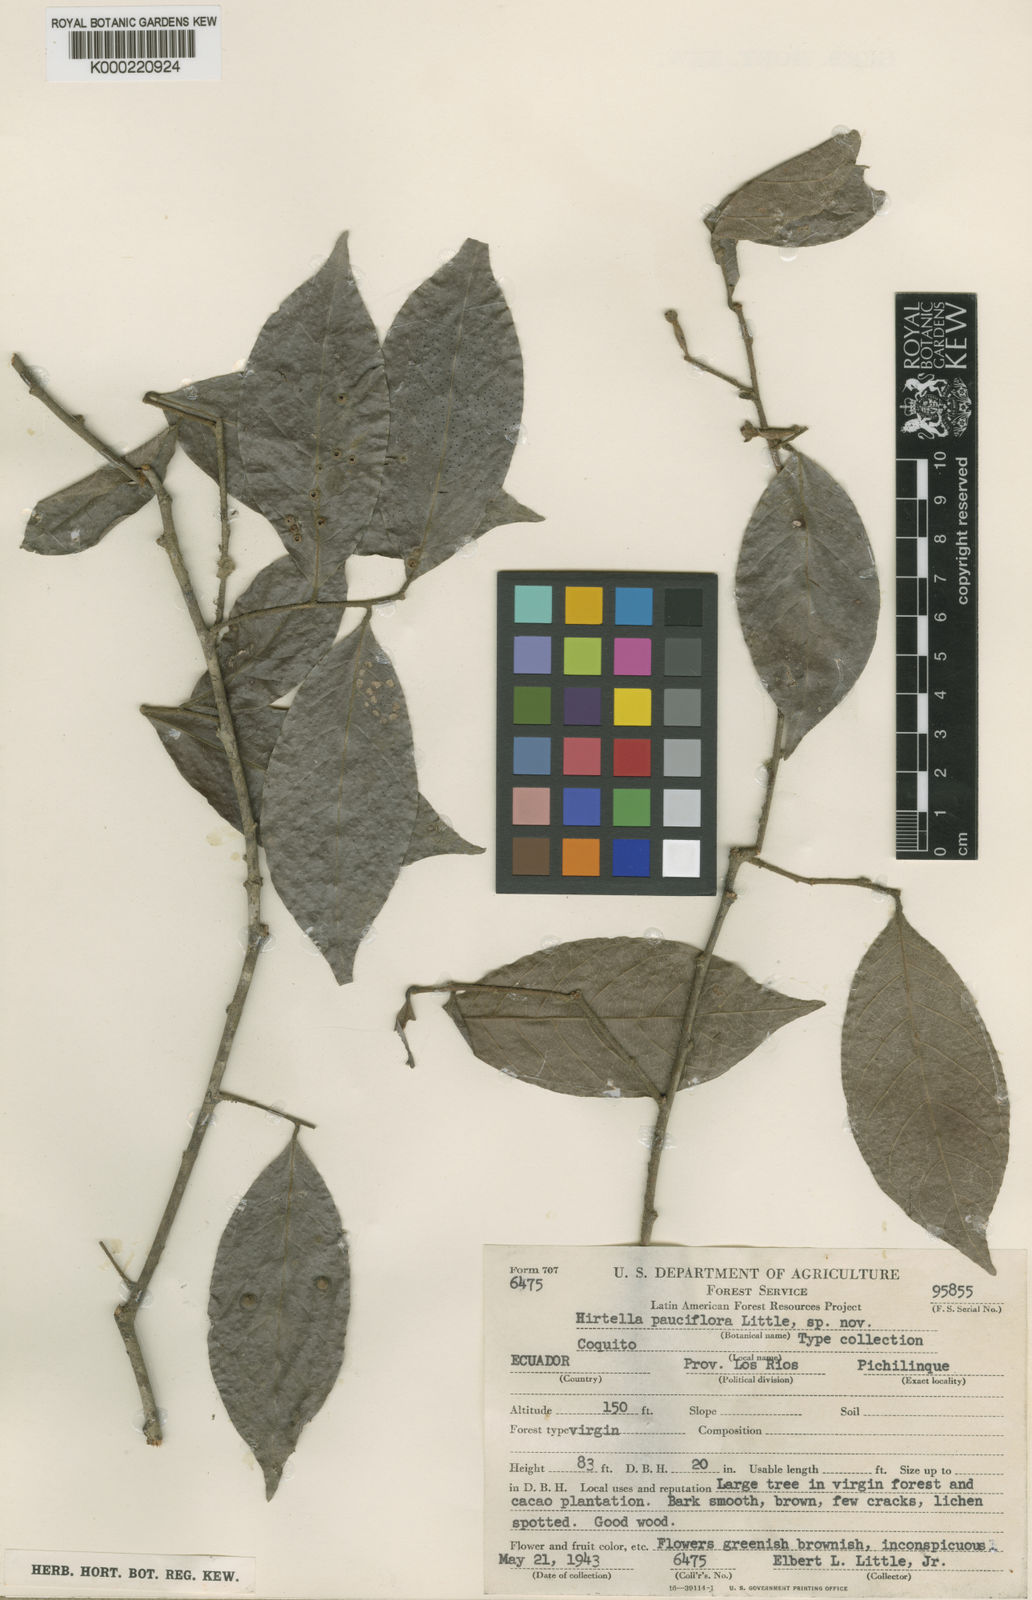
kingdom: Plantae
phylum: Tracheophyta
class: Magnoliopsida
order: Malpighiales
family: Chrysobalanaceae
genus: Hirtella
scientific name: Hirtella pauciflora
